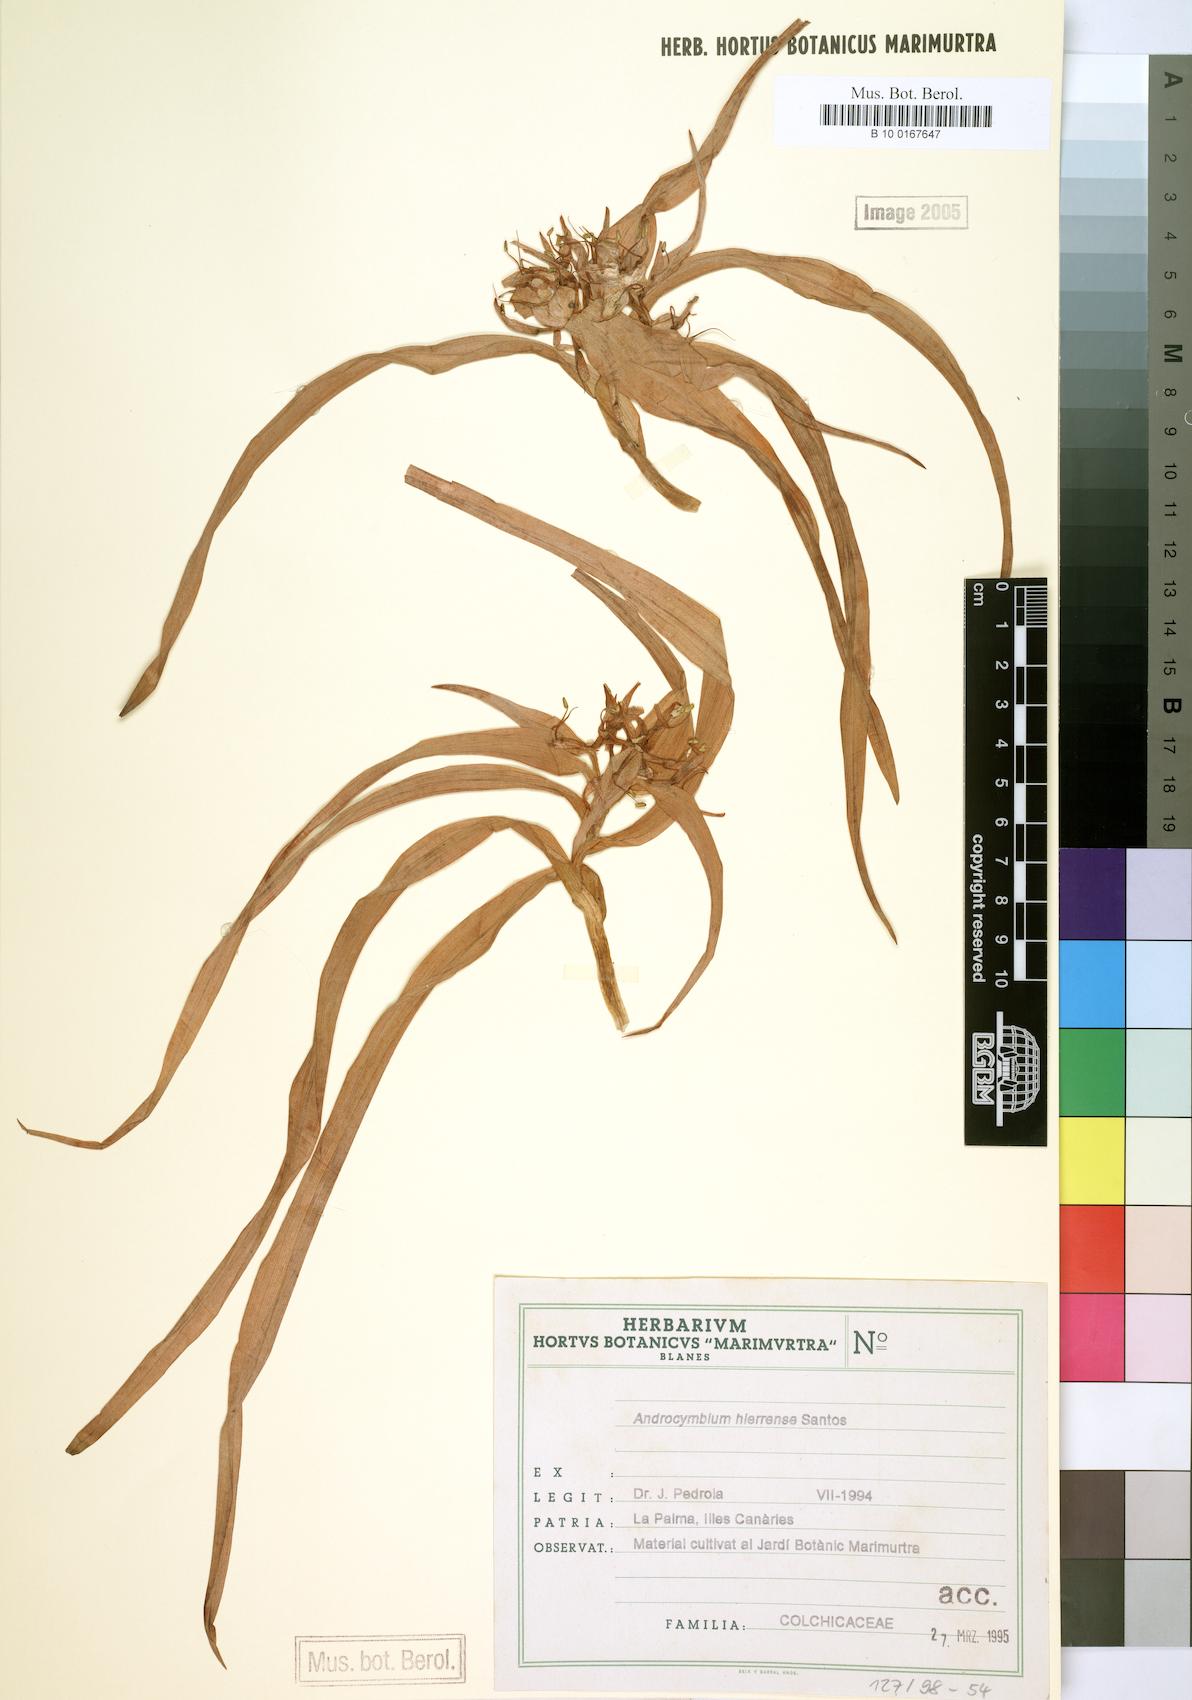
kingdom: Plantae
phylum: Tracheophyta
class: Liliopsida
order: Liliales
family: Colchicaceae
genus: Colchicum
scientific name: Colchicum hierrense
